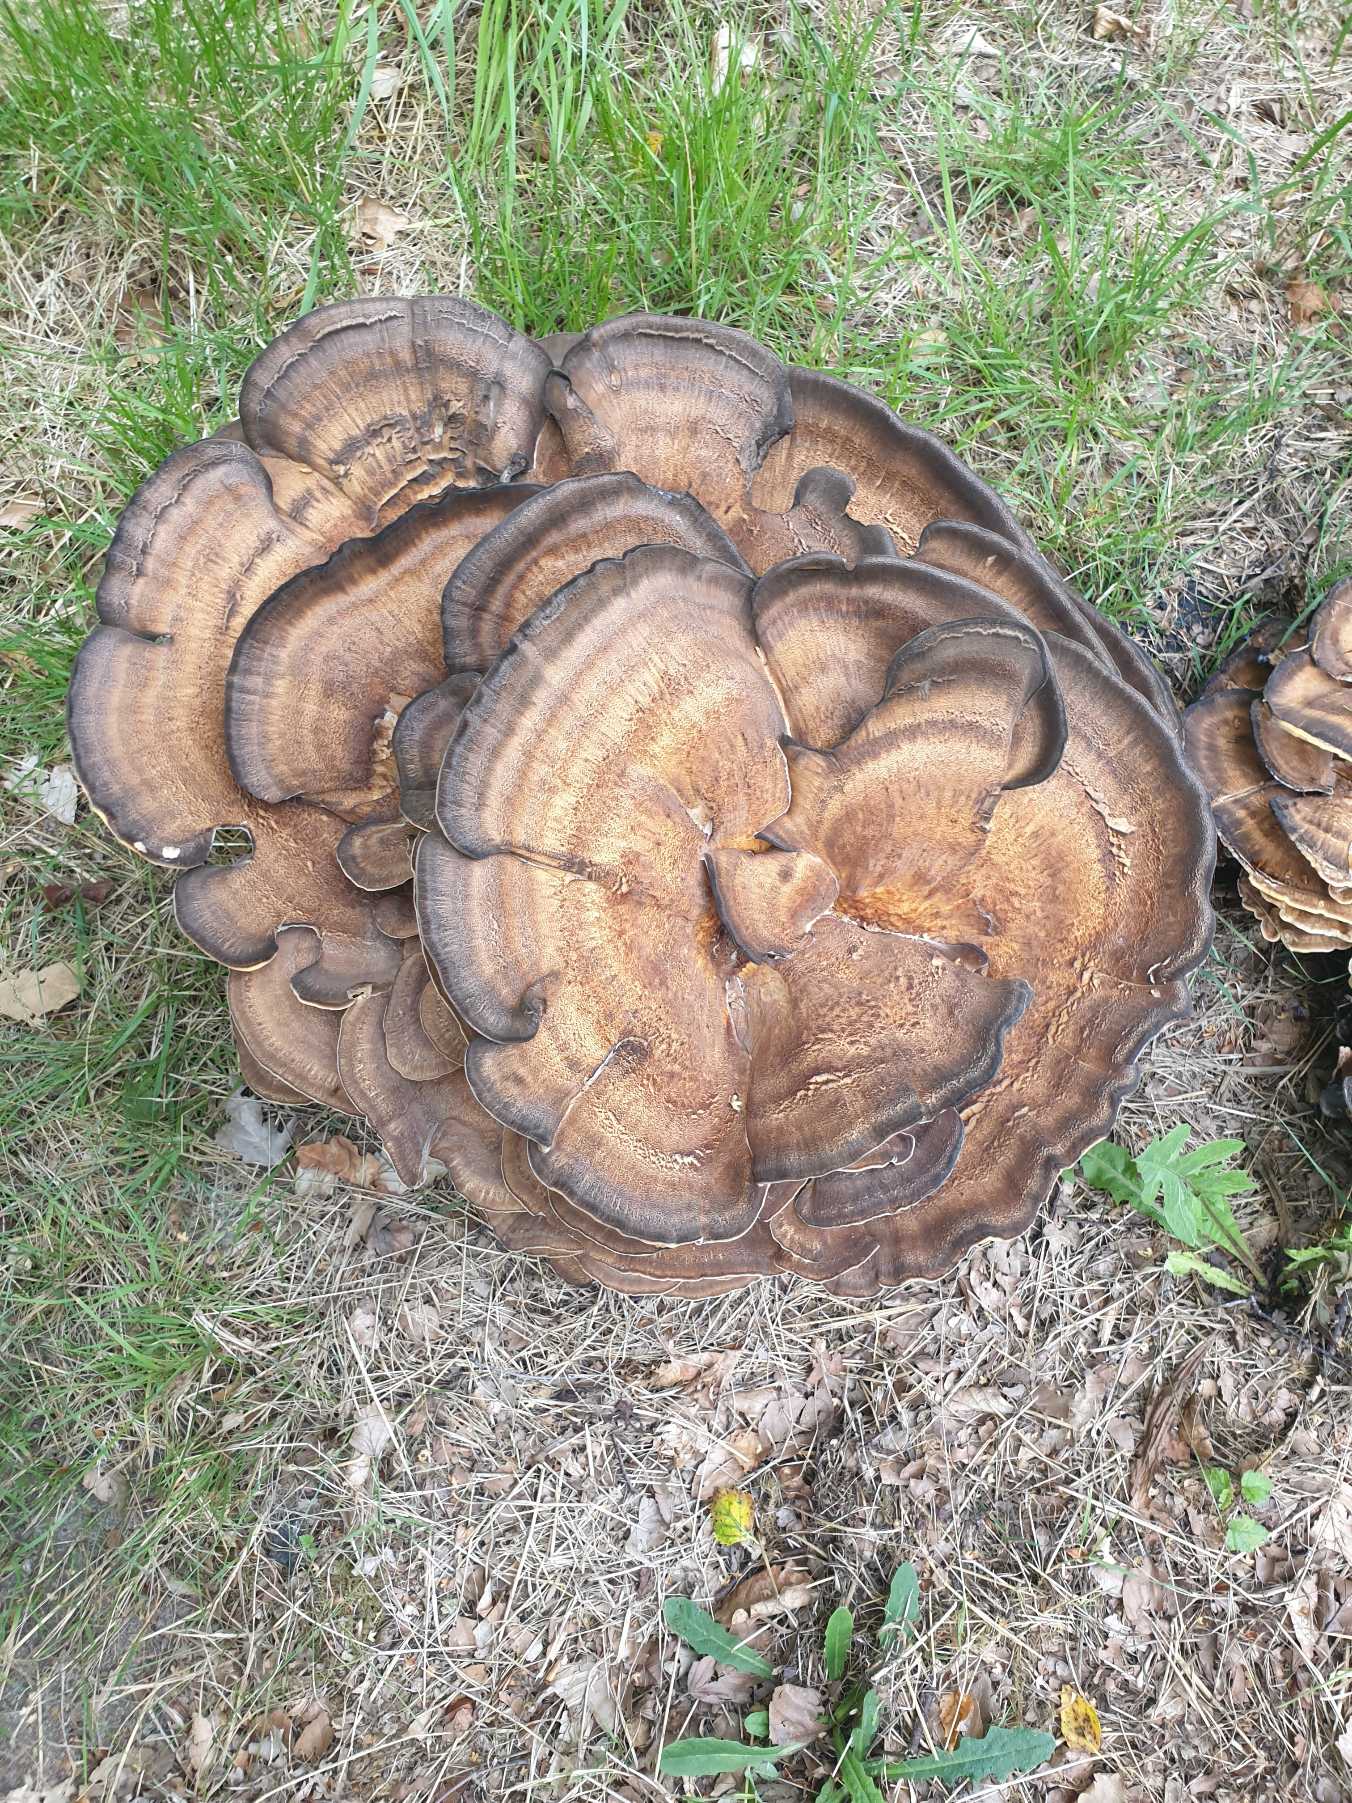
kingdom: Fungi
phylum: Basidiomycota
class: Agaricomycetes
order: Polyporales
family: Meripilaceae
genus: Meripilus
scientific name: Meripilus giganteus
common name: Kæmpeporesvamp
